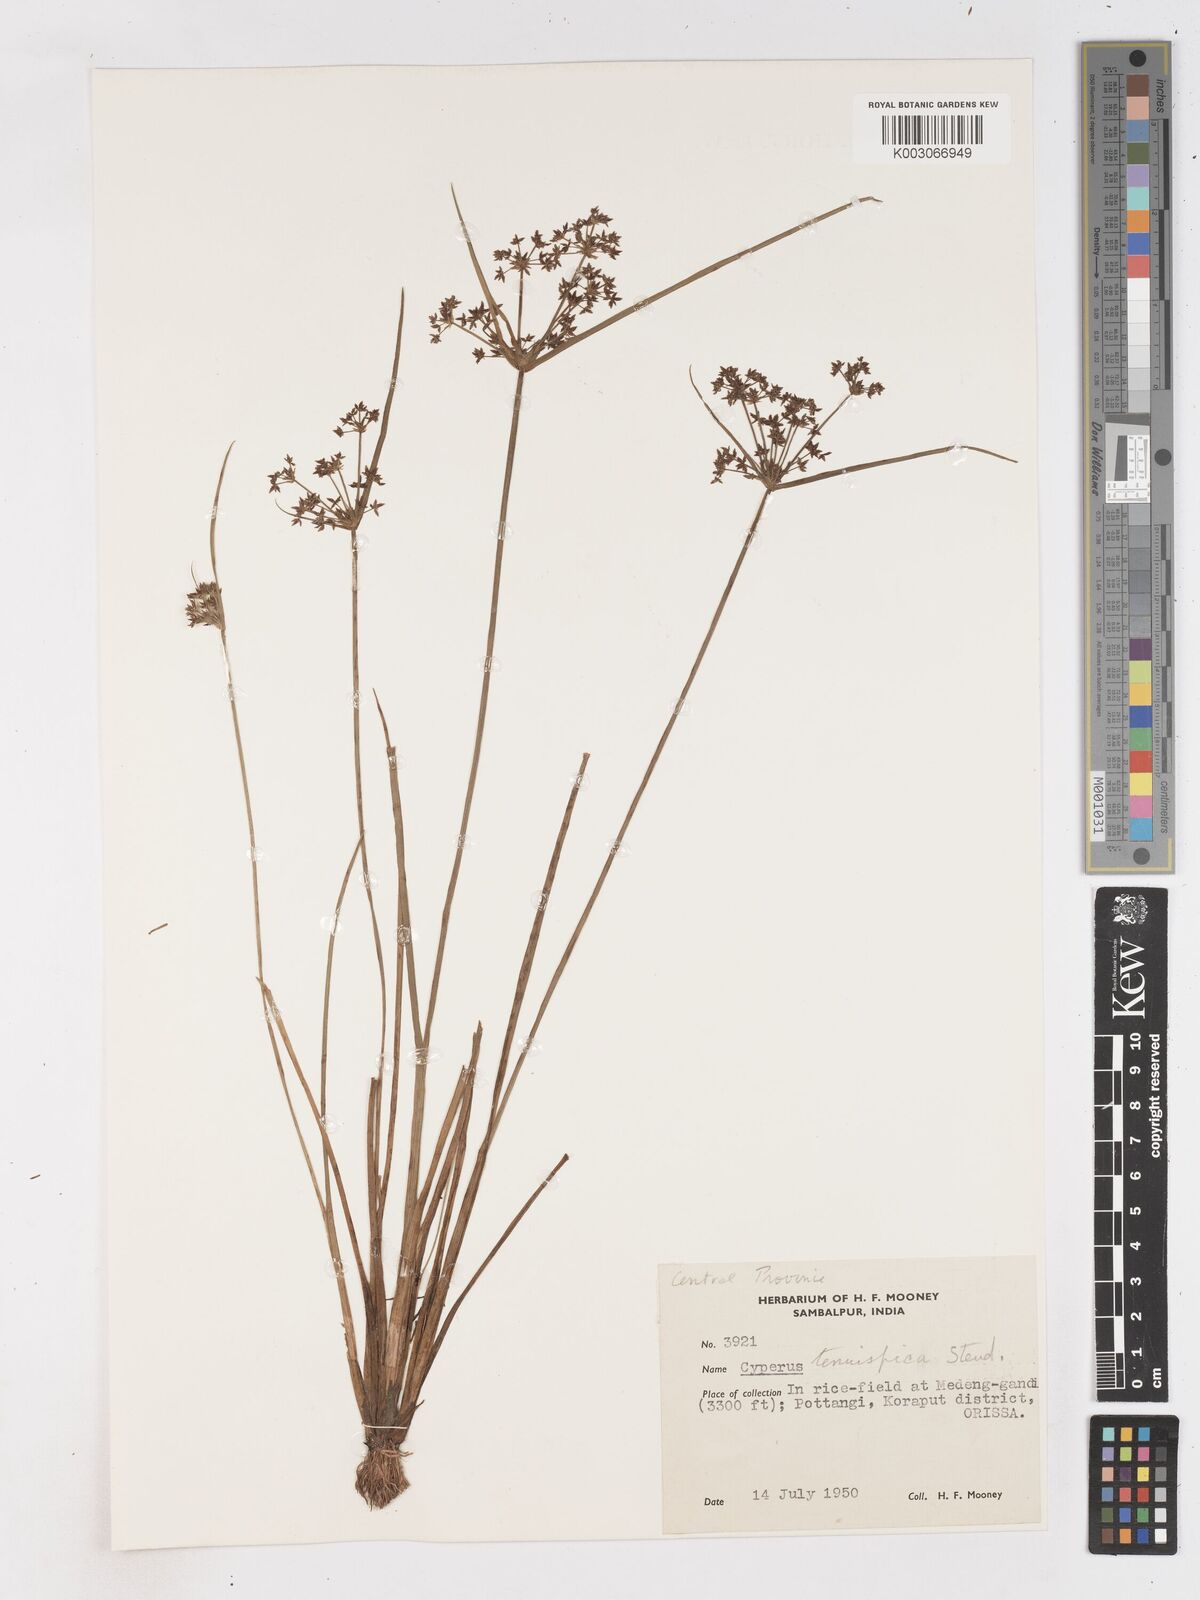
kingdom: Plantae
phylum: Tracheophyta
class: Liliopsida
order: Poales
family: Cyperaceae
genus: Cyperus
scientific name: Cyperus tenuispica
